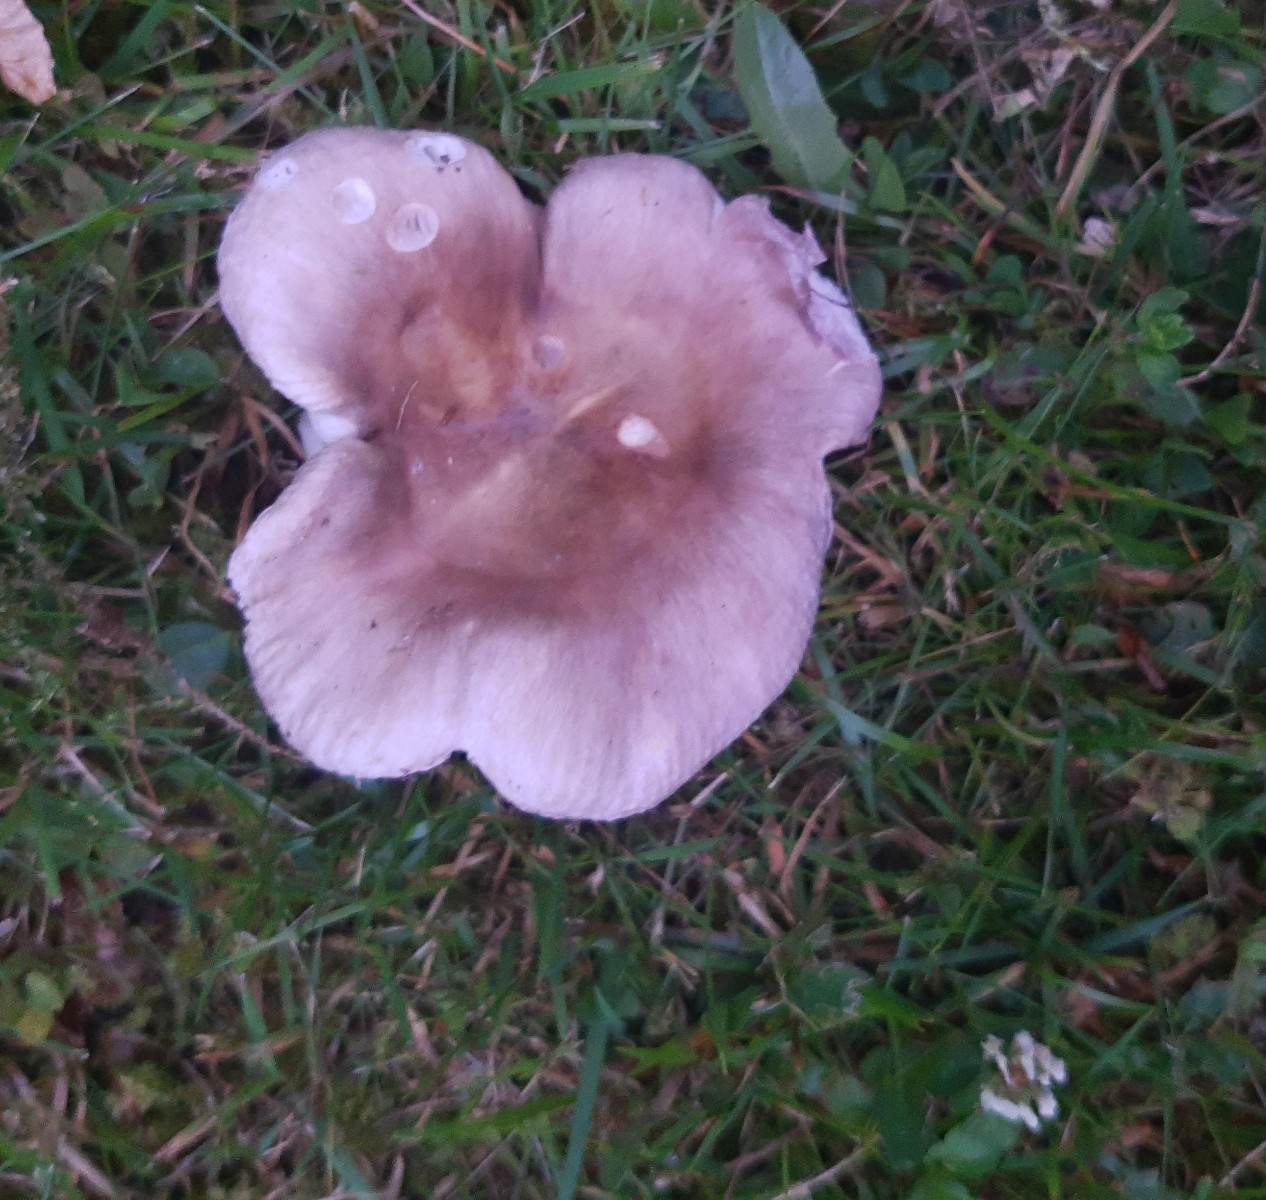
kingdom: Fungi
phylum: Basidiomycota
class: Agaricomycetes
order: Russulales
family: Russulaceae
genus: Russula
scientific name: Russula heterophylla
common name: gaffelbladet skørhat
